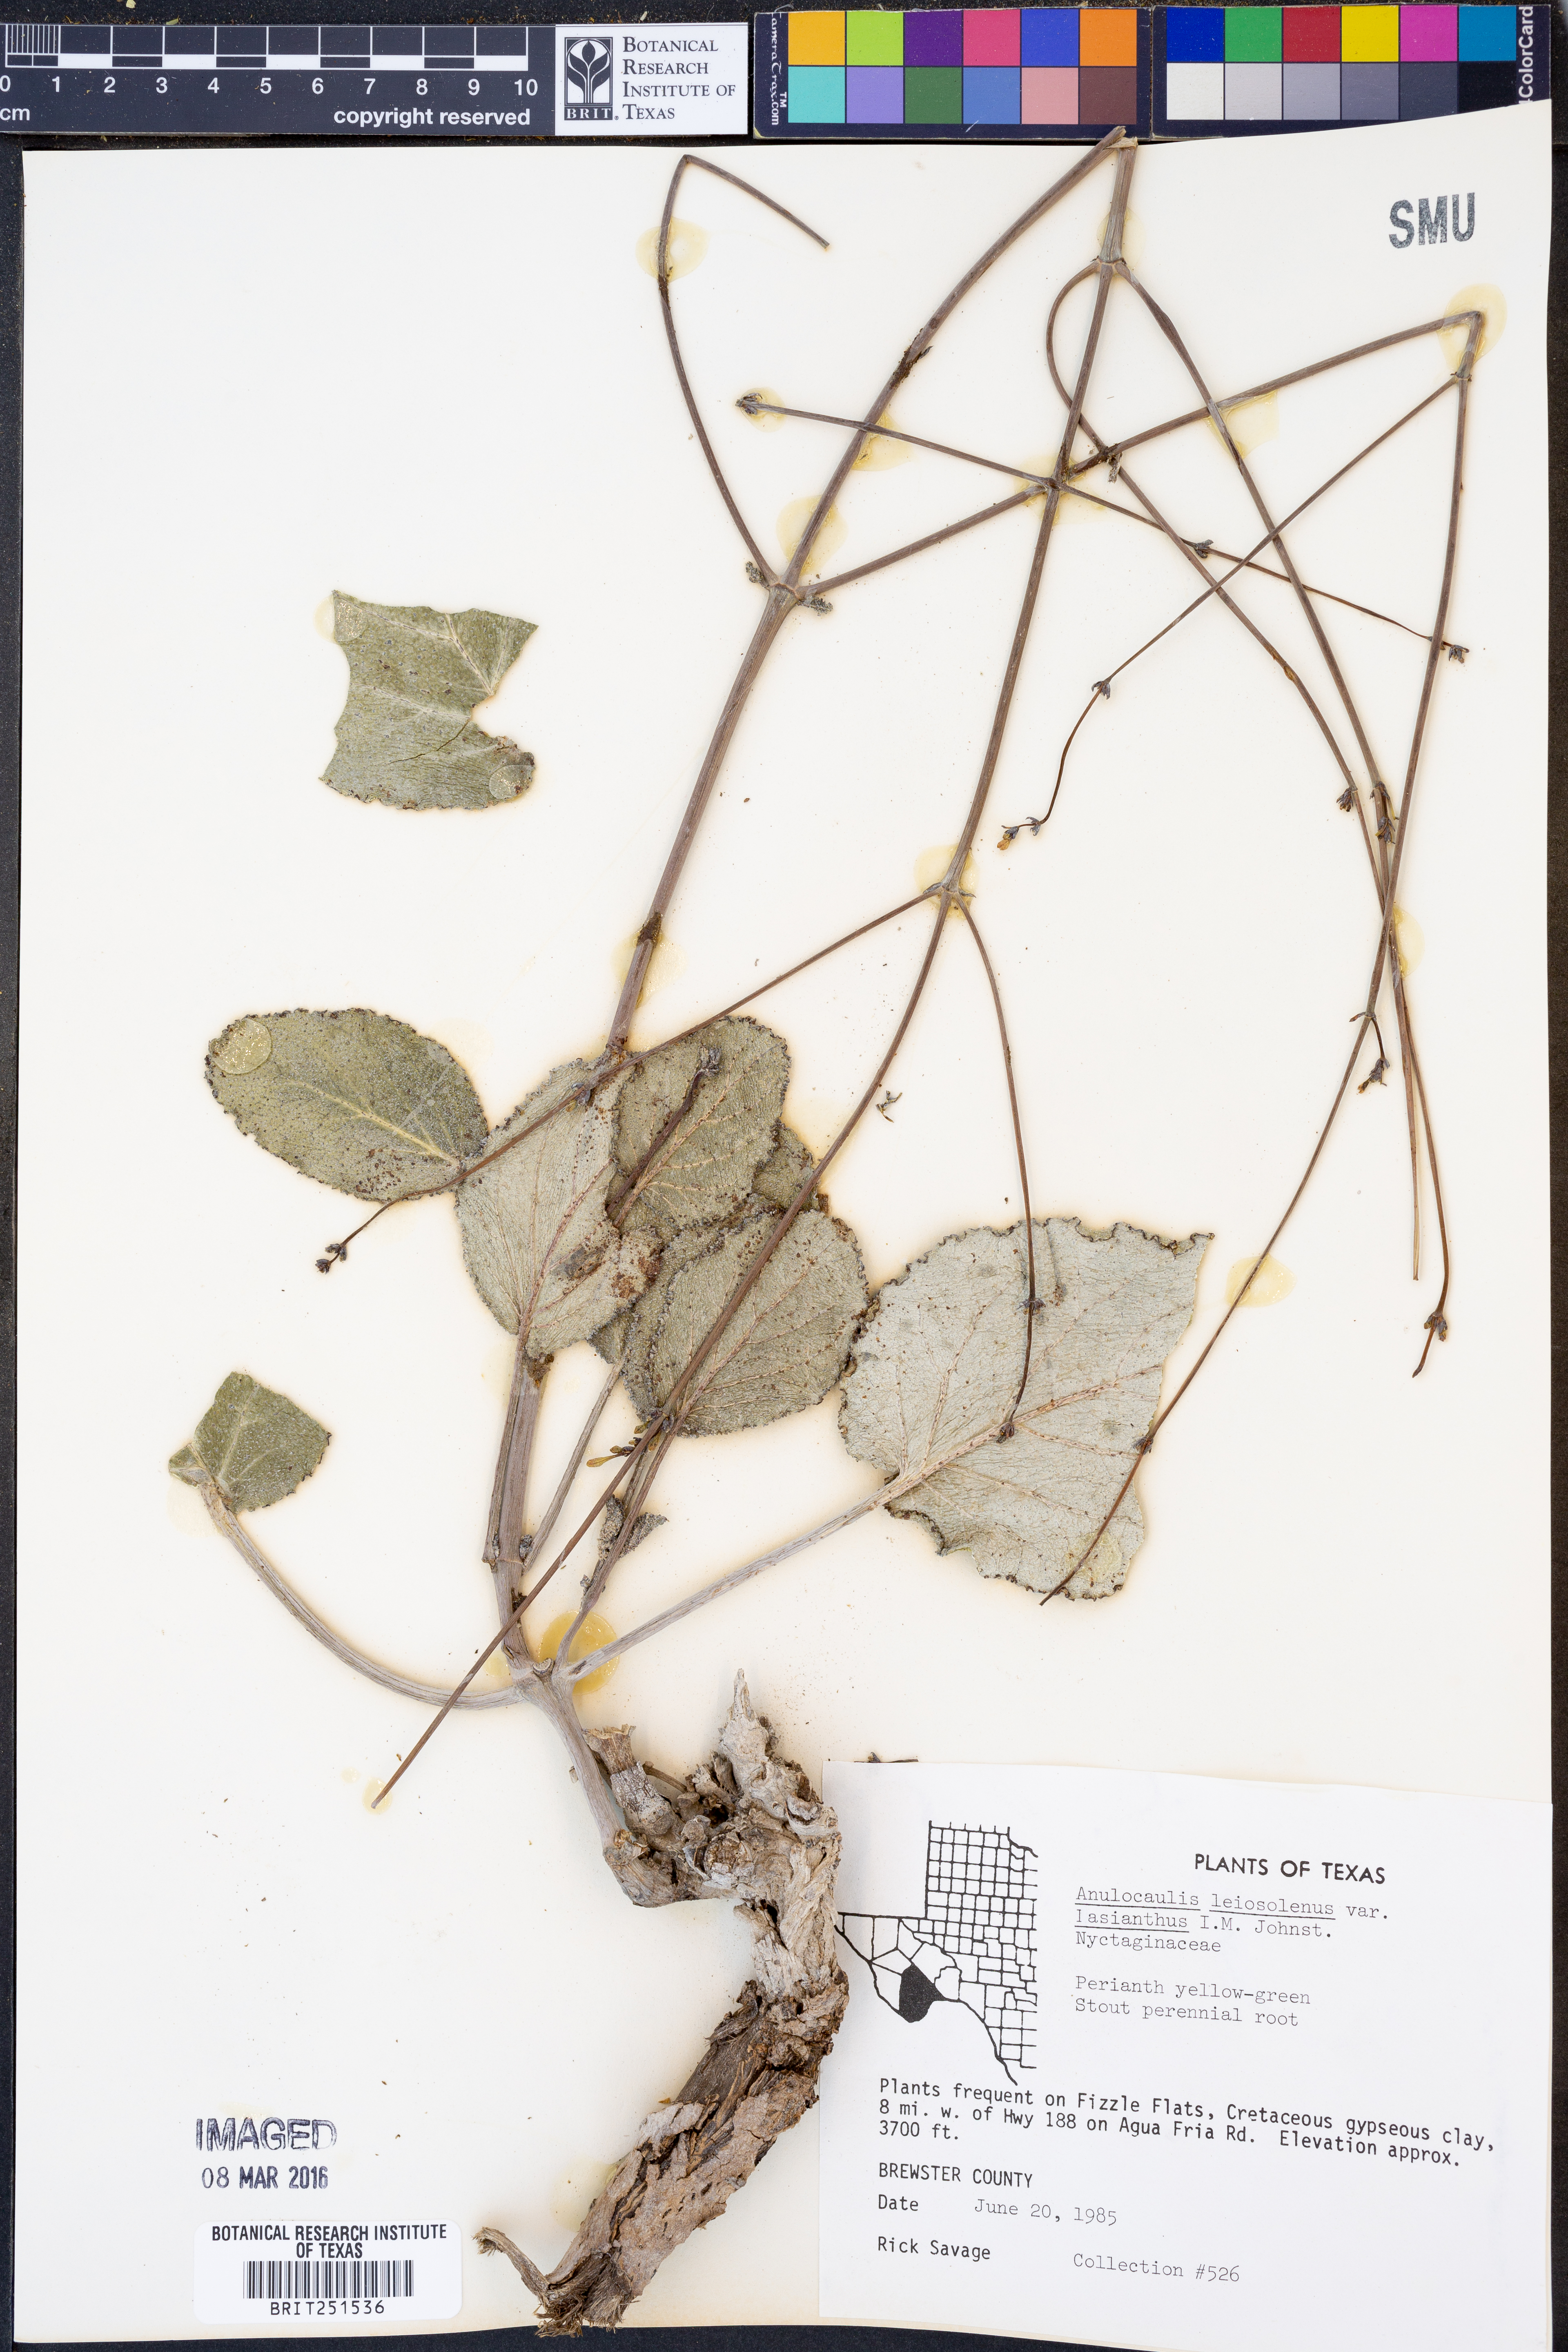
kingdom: Plantae
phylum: Tracheophyta
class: Magnoliopsida
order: Caryophyllales
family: Nyctaginaceae
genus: Anulocaulis
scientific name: Anulocaulis leiosolenus
